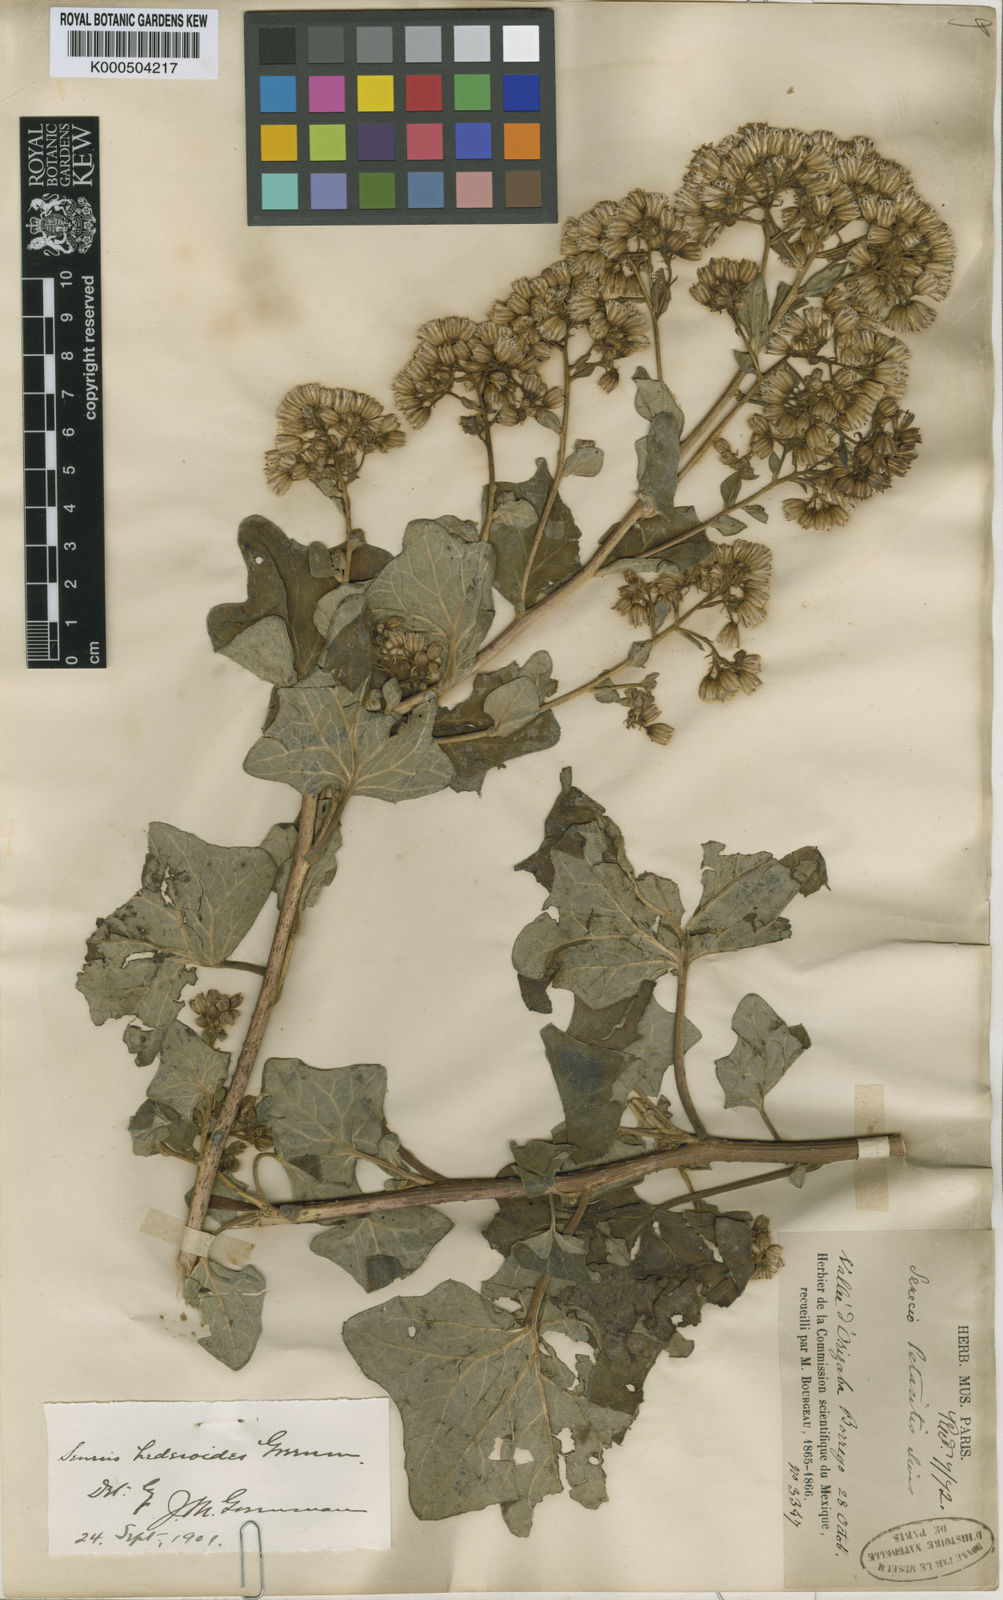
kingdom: Plantae
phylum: Tracheophyta
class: Magnoliopsida
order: Asterales
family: Asteraceae
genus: Roldana
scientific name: Roldana oaxacana
